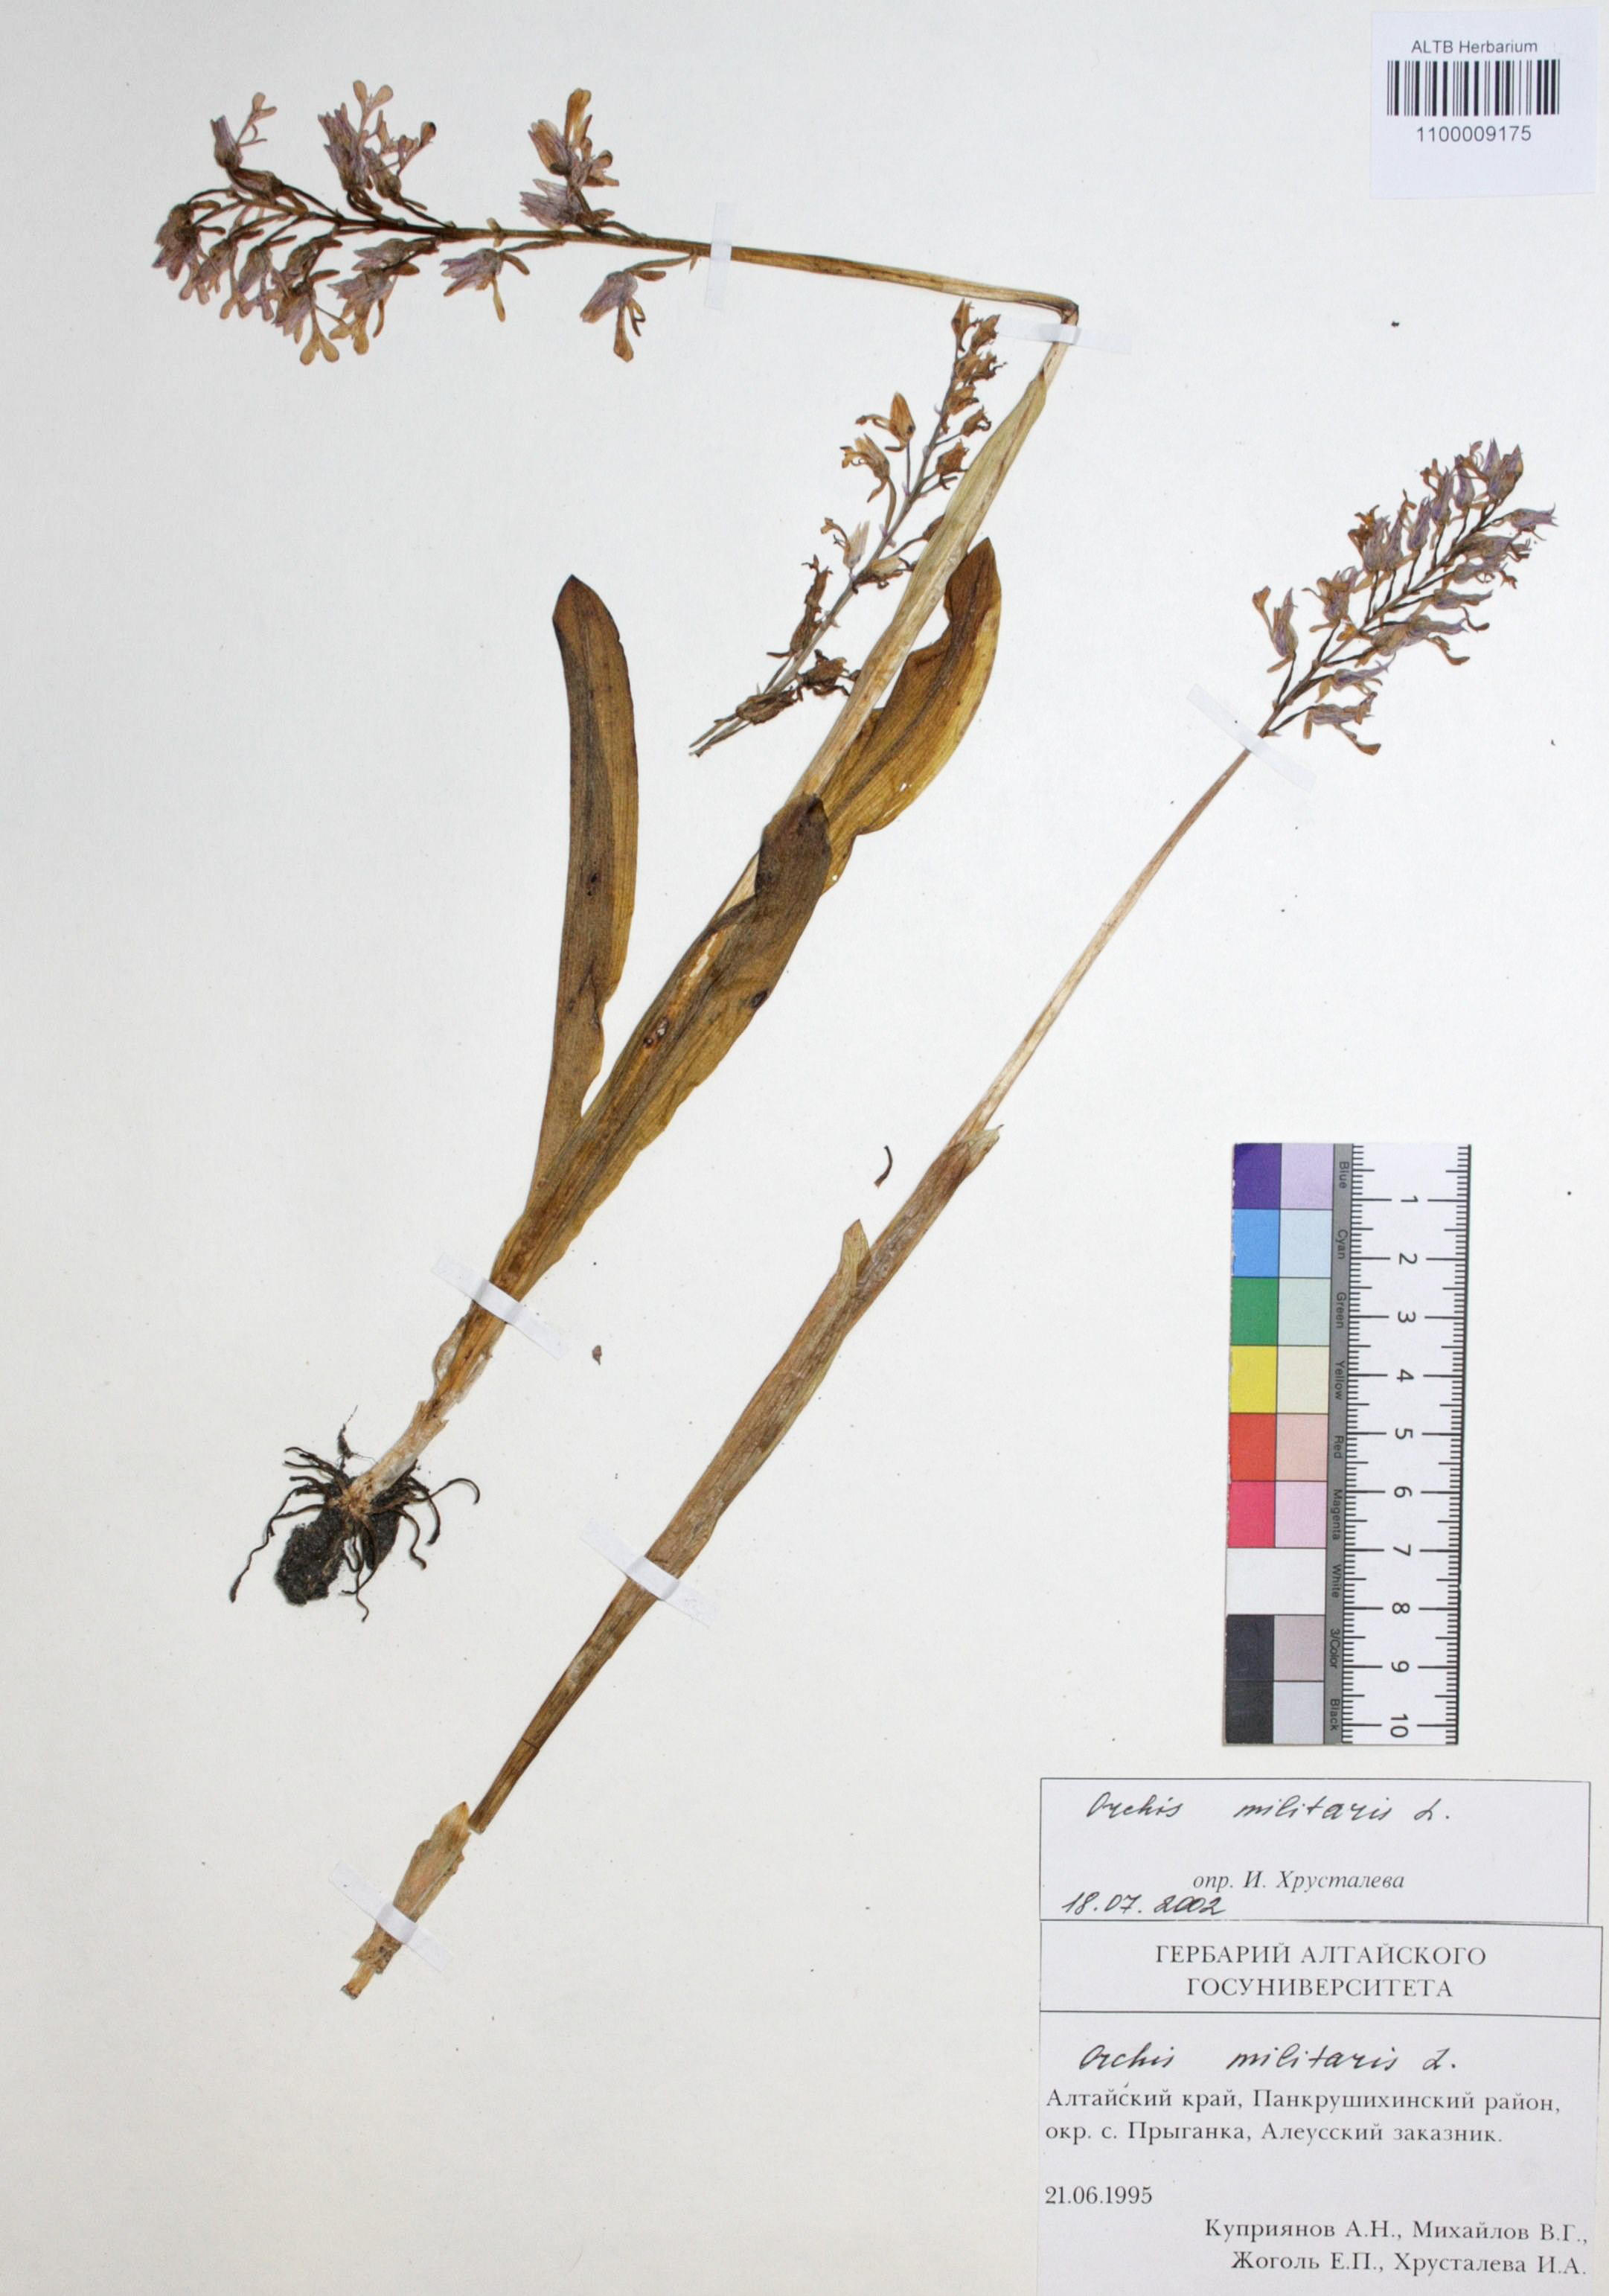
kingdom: Plantae
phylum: Tracheophyta
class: Liliopsida
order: Asparagales
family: Orchidaceae
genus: Orchis
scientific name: Orchis militaris
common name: Military orchid
